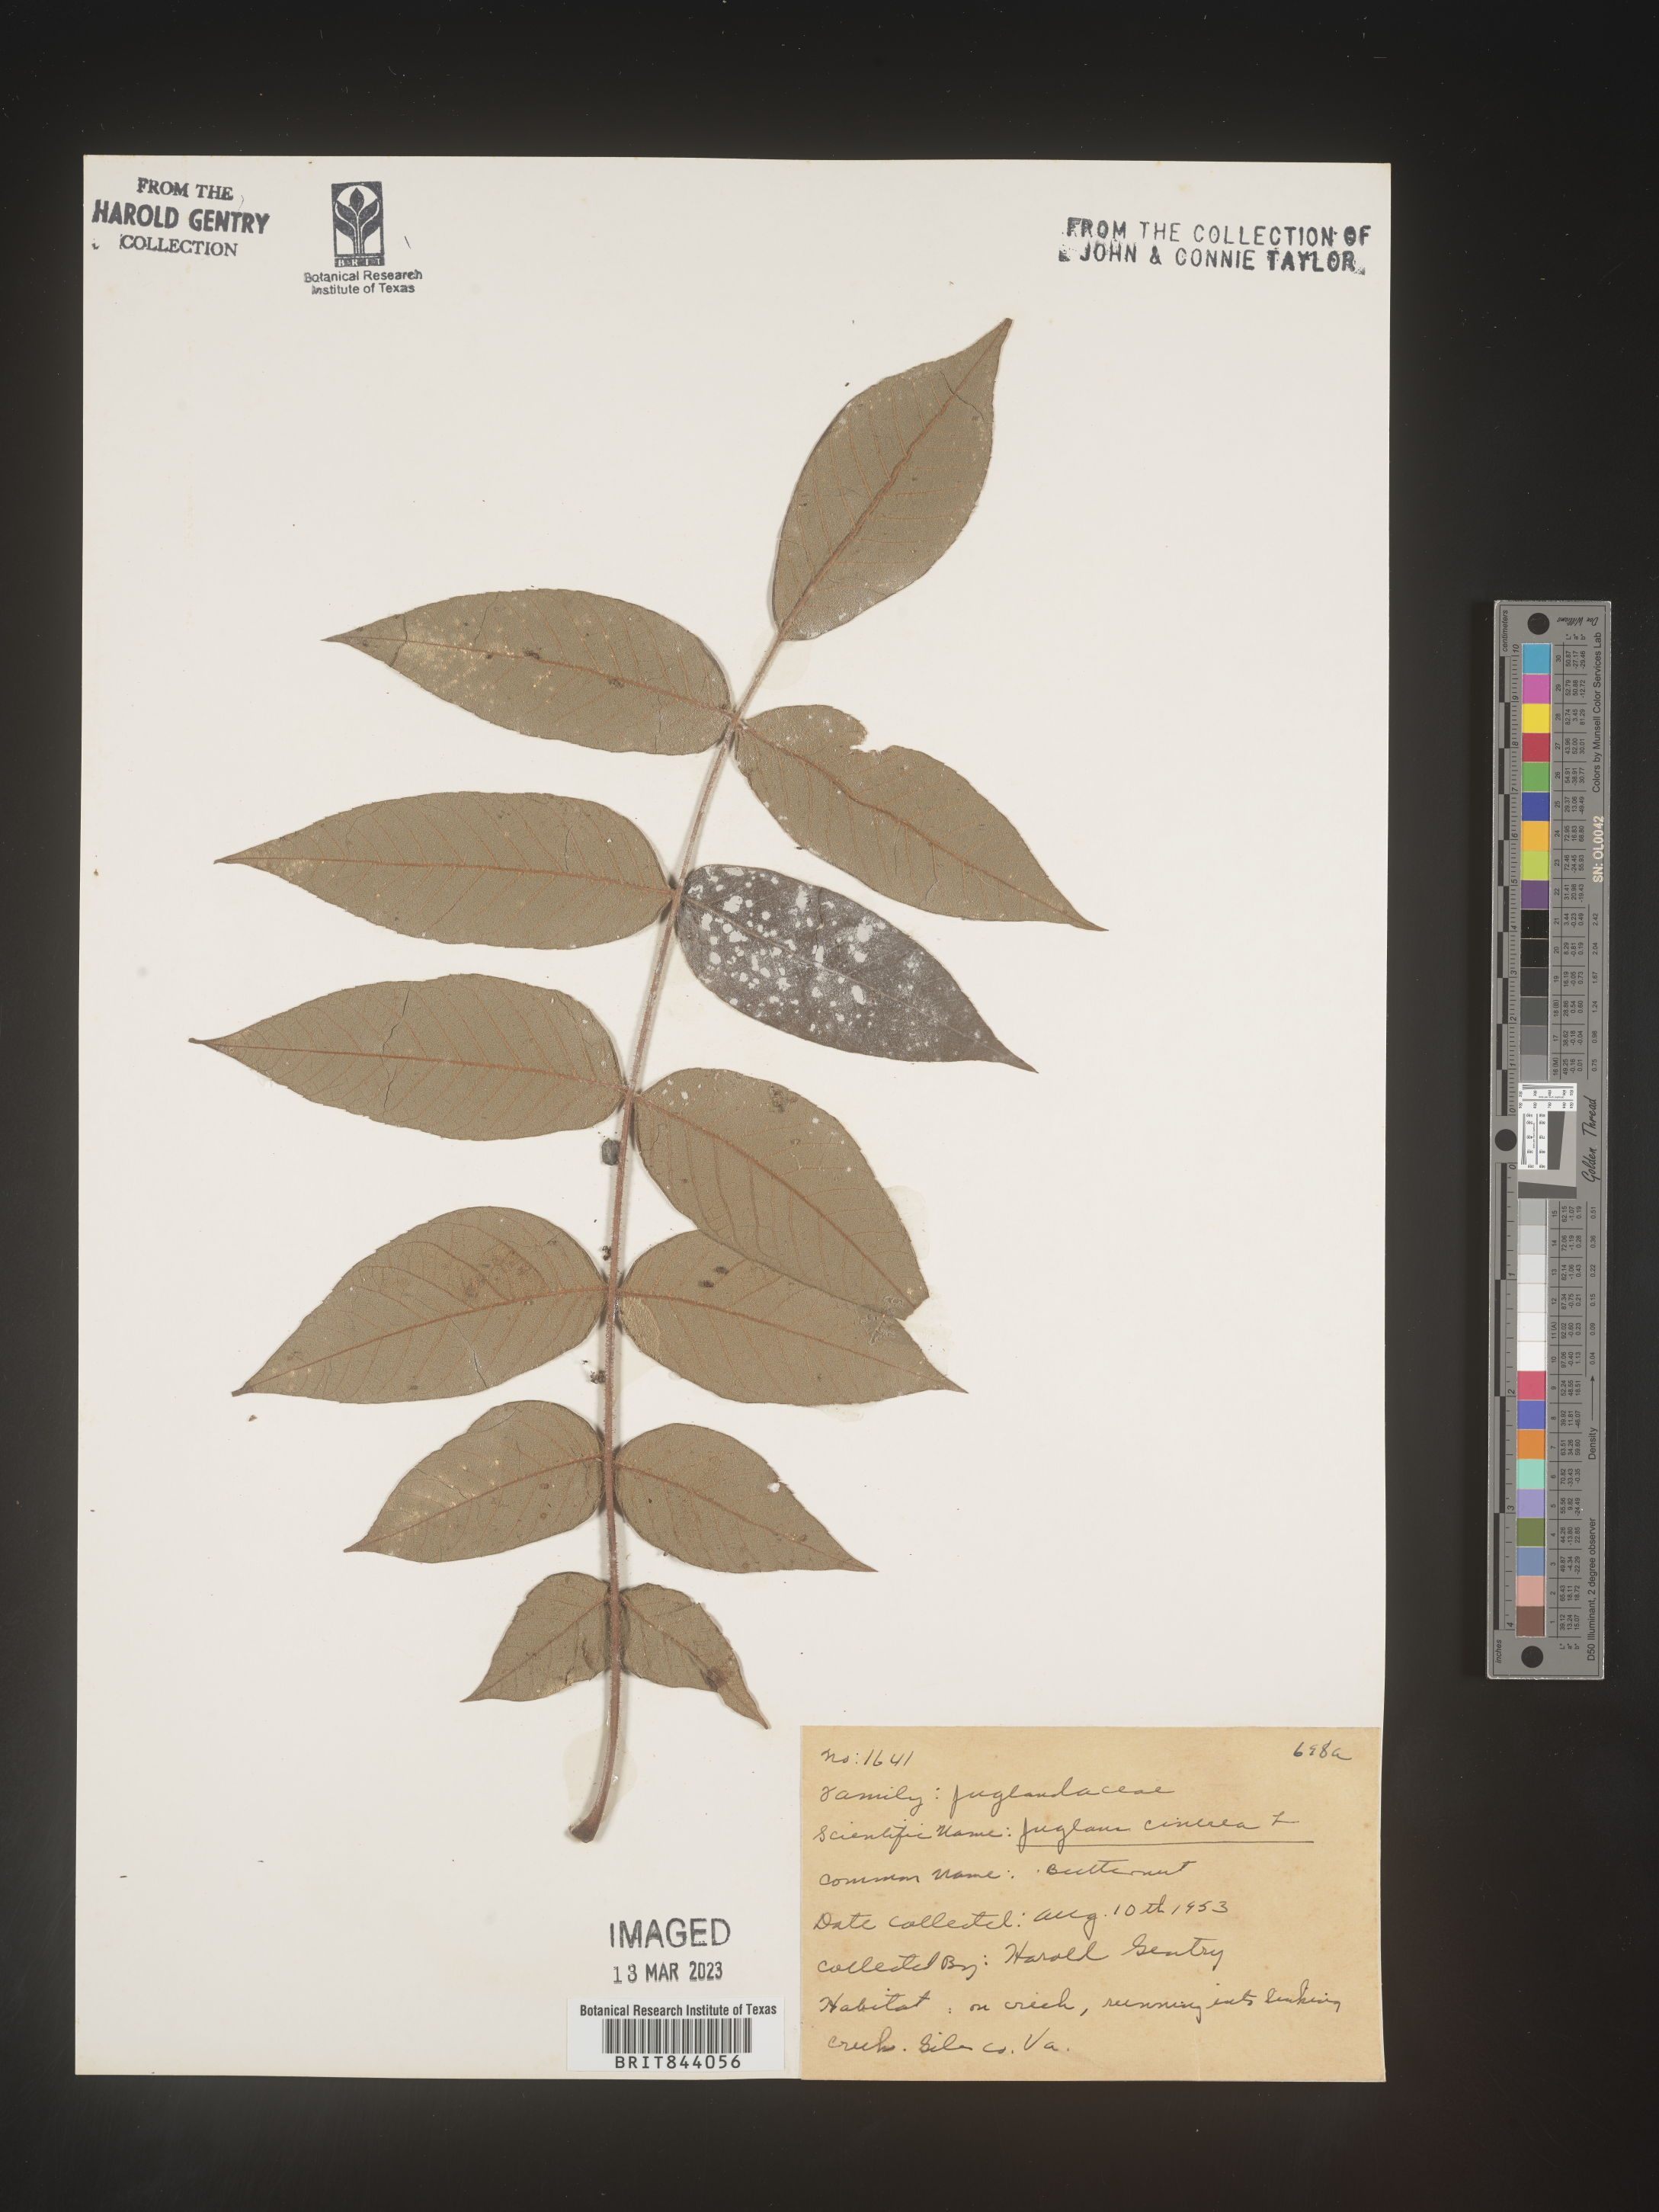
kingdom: Plantae
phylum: Tracheophyta
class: Magnoliopsida
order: Fagales
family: Juglandaceae
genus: Juglans
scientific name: Juglans cinerea
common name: Butternut
